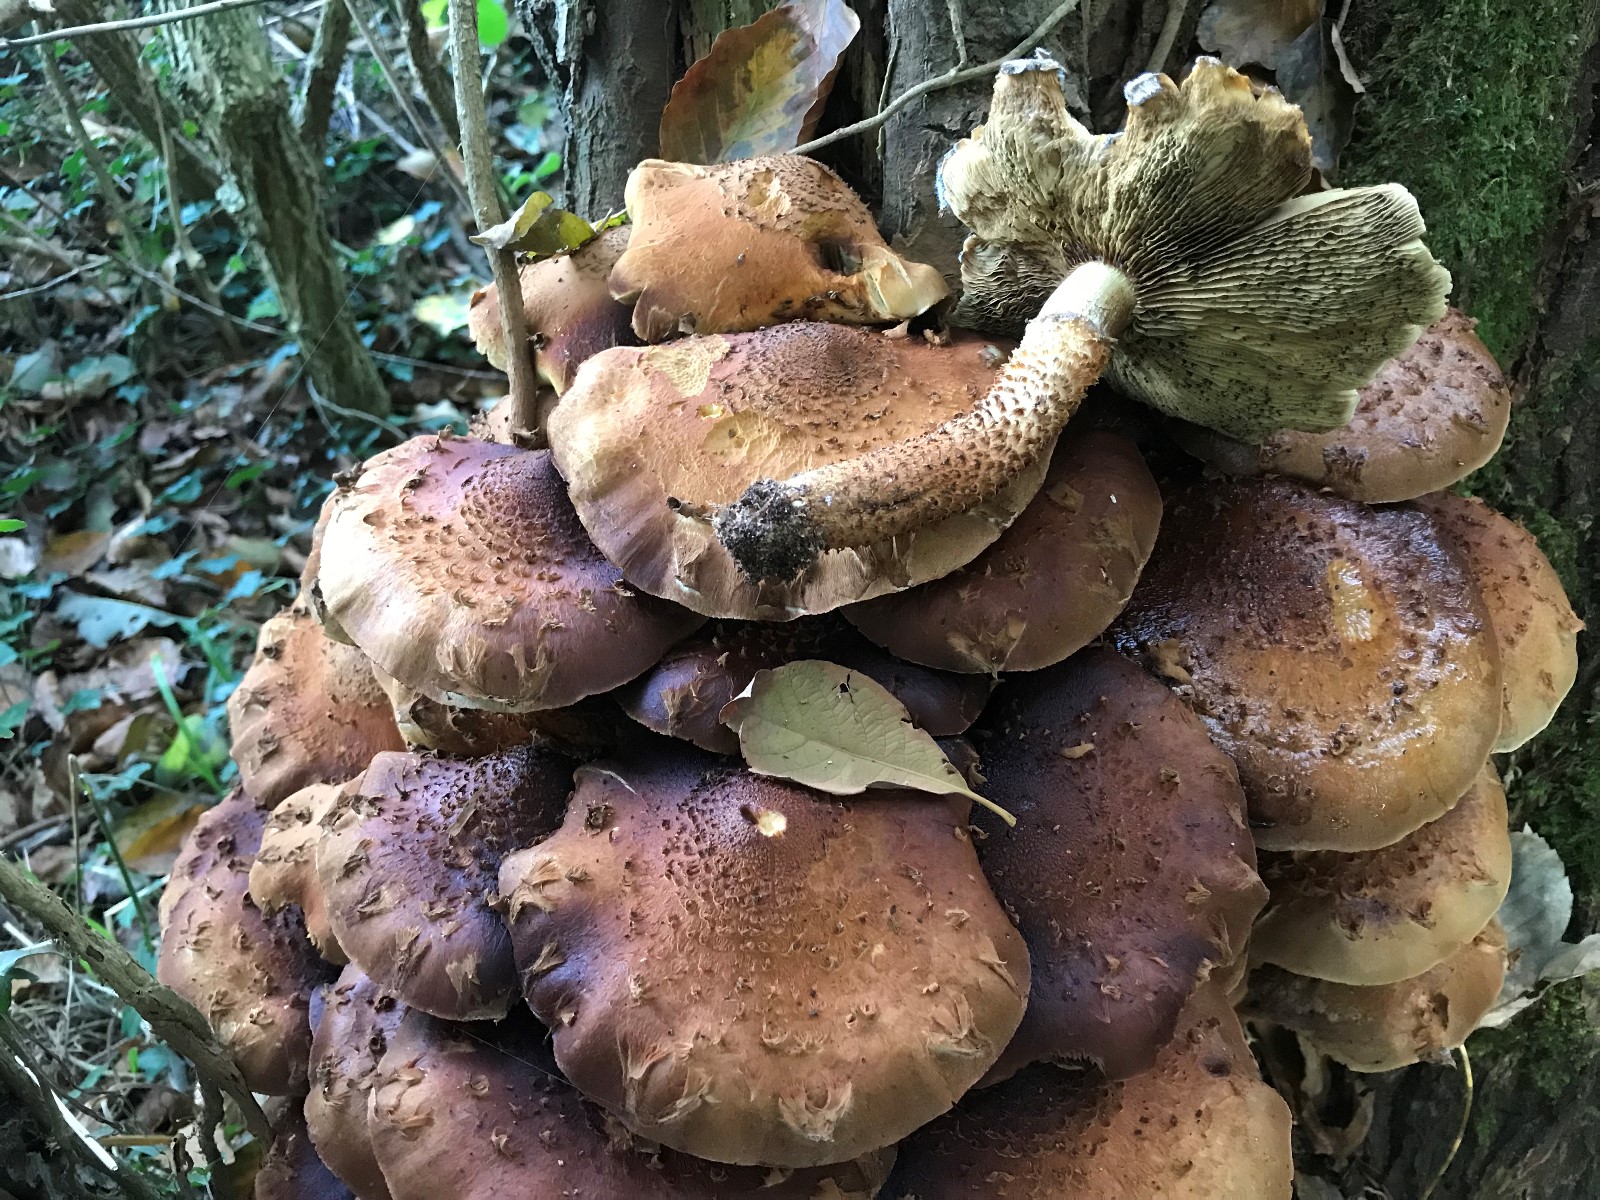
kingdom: Fungi
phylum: Basidiomycota
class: Agaricomycetes
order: Agaricales
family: Strophariaceae
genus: Pholiota
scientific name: Pholiota squarrosa
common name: krumskællet skælhat
